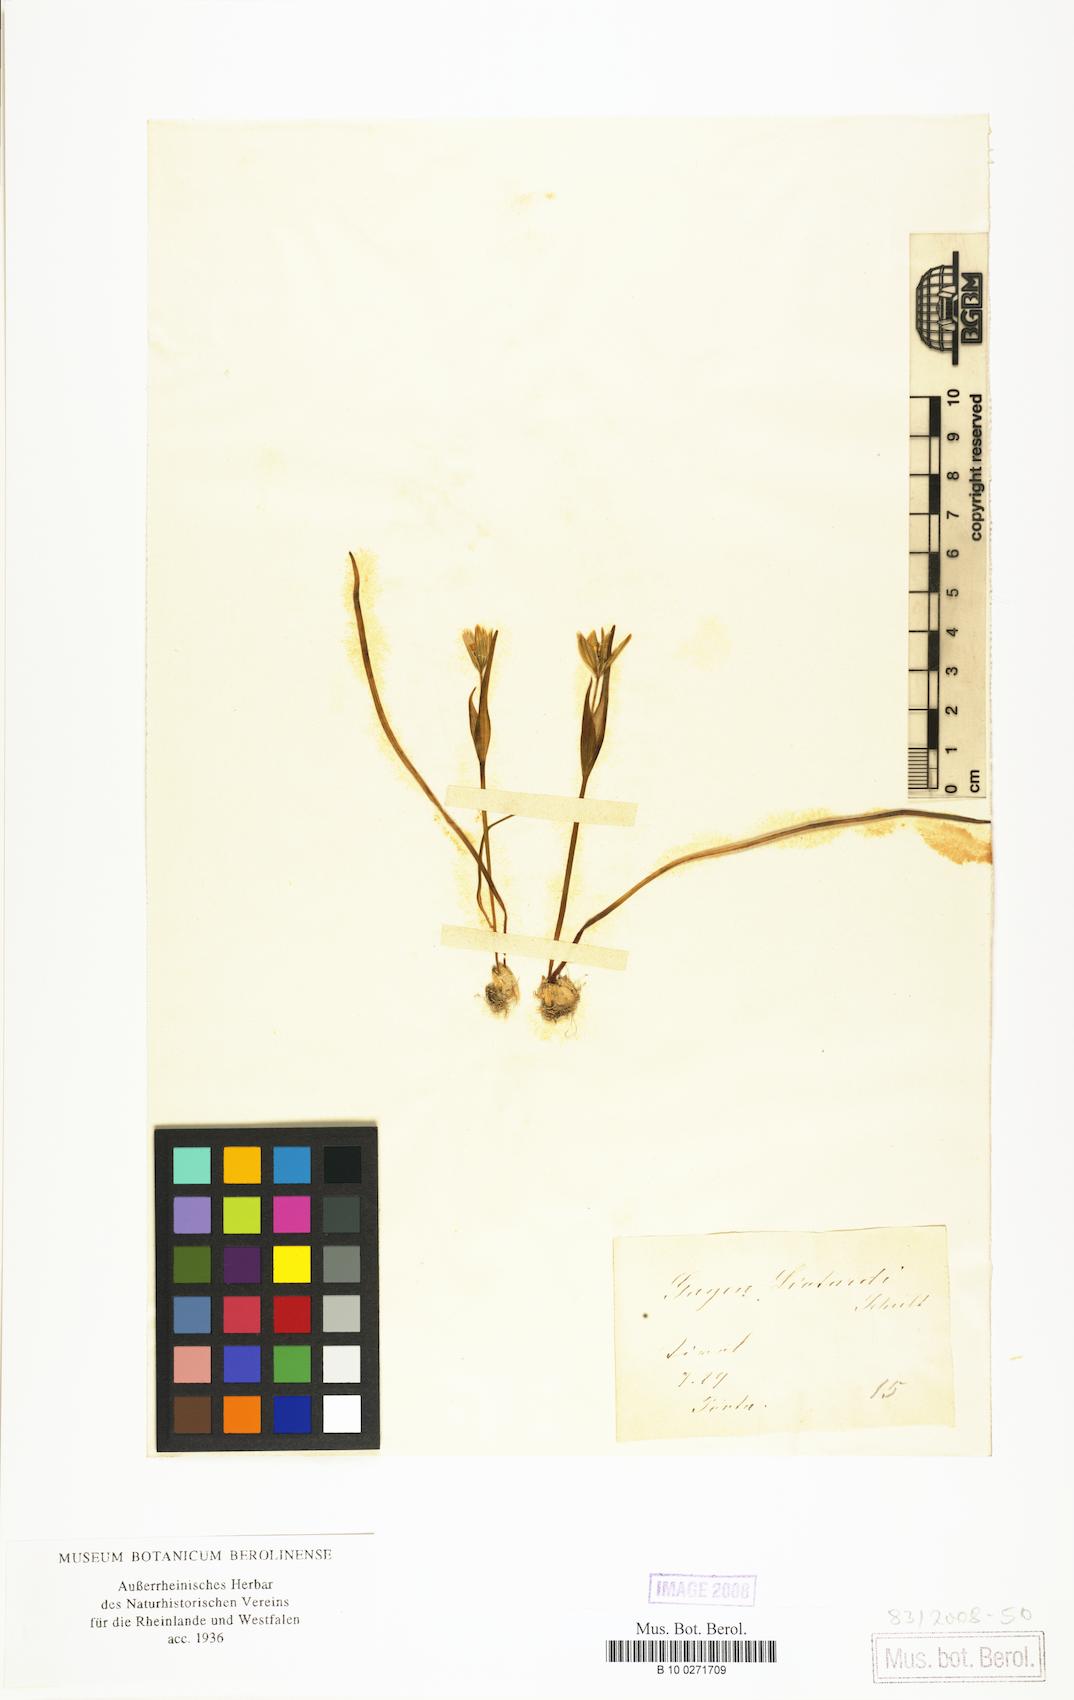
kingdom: Plantae
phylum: Tracheophyta
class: Liliopsida
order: Liliales
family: Liliaceae
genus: Gagea
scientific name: Gagea bohemica
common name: Early star-of-bethlehem
